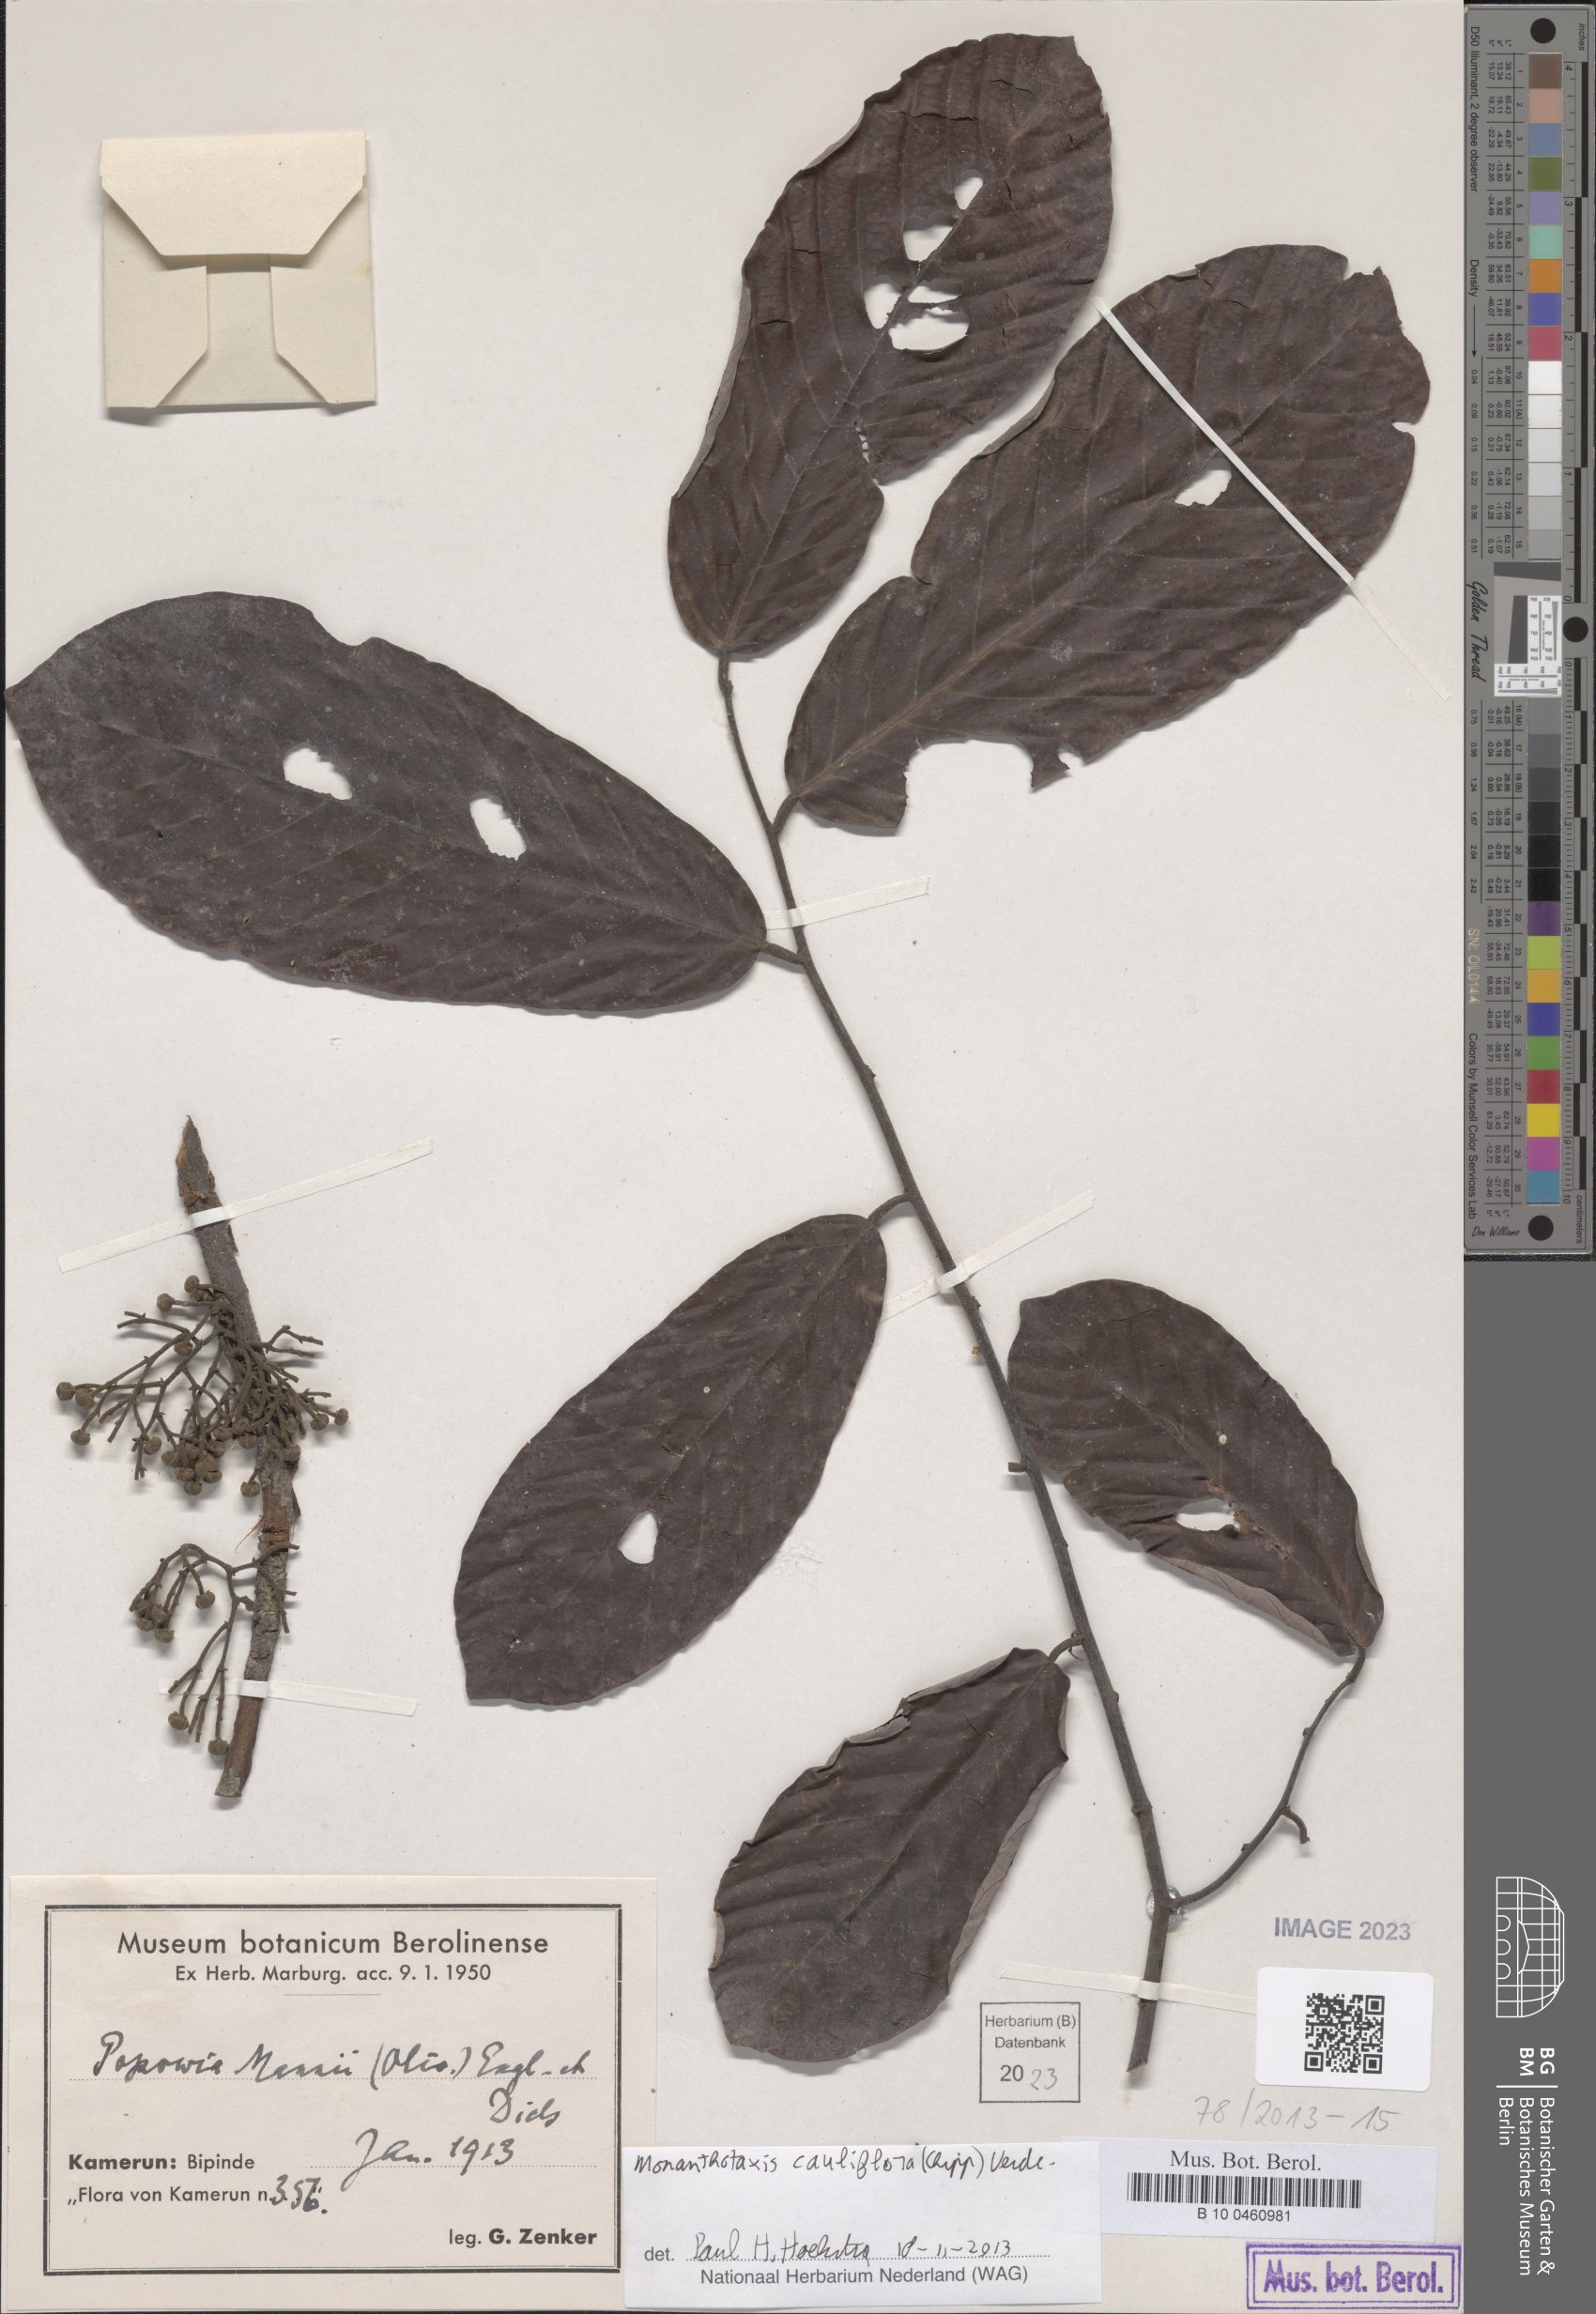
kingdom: Plantae
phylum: Tracheophyta
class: Magnoliopsida
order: Magnoliales
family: Annonaceae
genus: Monanthotaxis
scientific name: Monanthotaxis cauliflora
